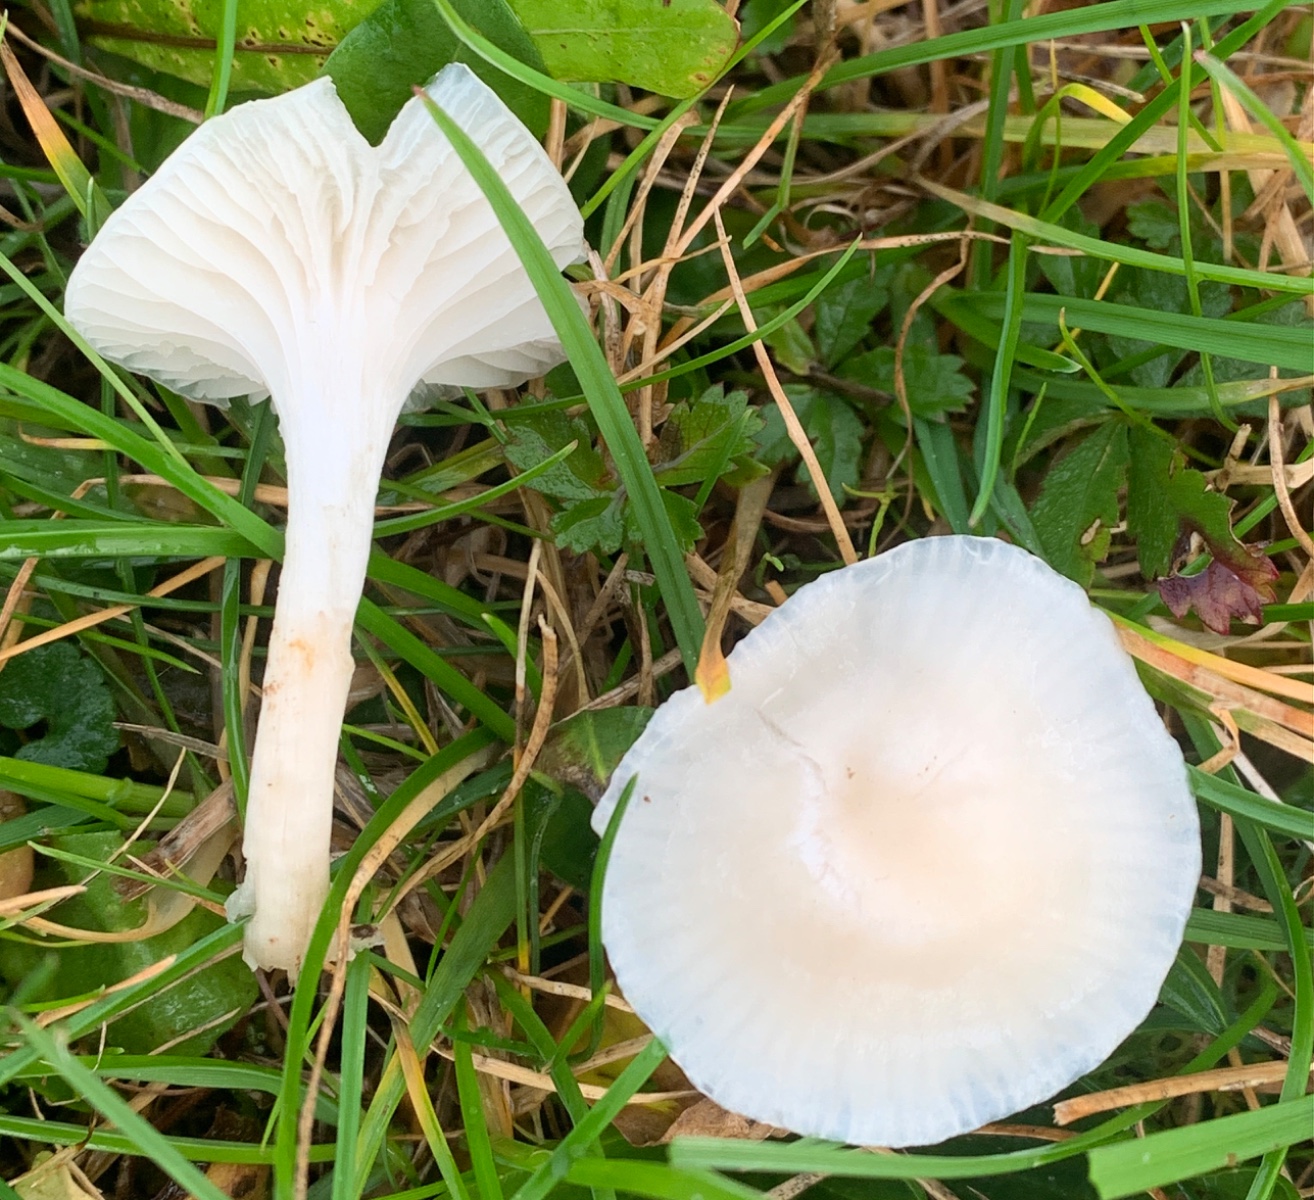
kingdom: Fungi
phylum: Basidiomycota
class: Agaricomycetes
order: Agaricales
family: Hygrophoraceae
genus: Cuphophyllus
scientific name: Cuphophyllus virgineus
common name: snehvid vokshat
